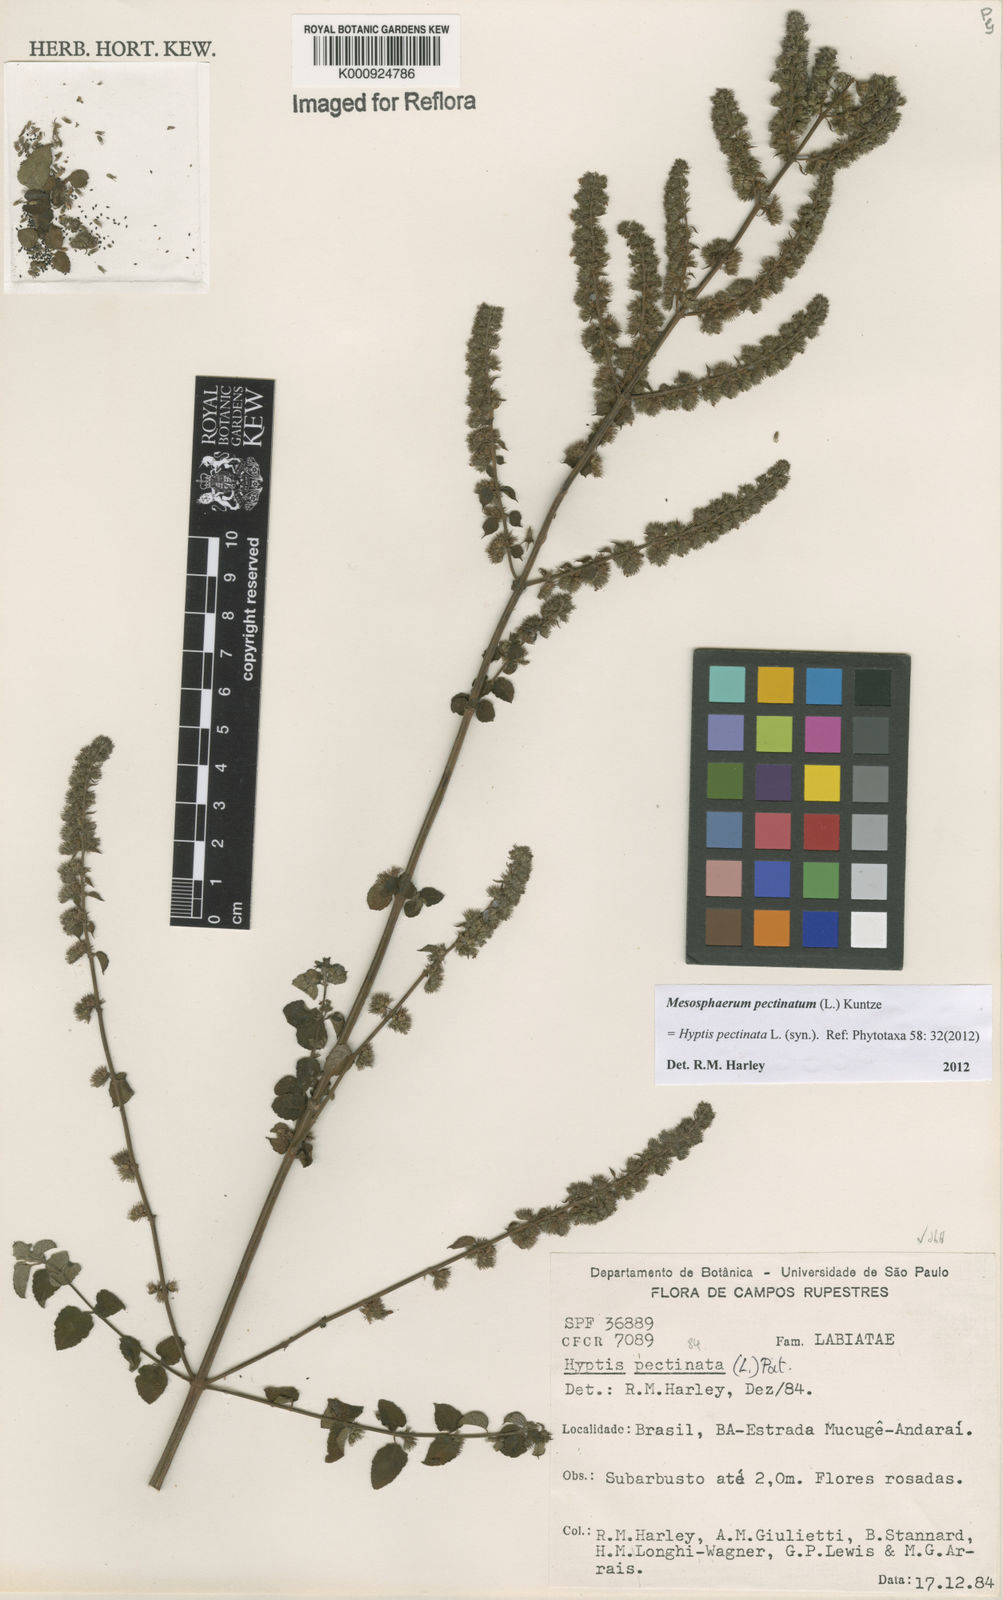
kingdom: Plantae
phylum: Tracheophyta
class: Magnoliopsida
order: Lamiales
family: Lamiaceae
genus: Mesosphaerum
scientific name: Mesosphaerum pectinatum
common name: Comb hyptis
